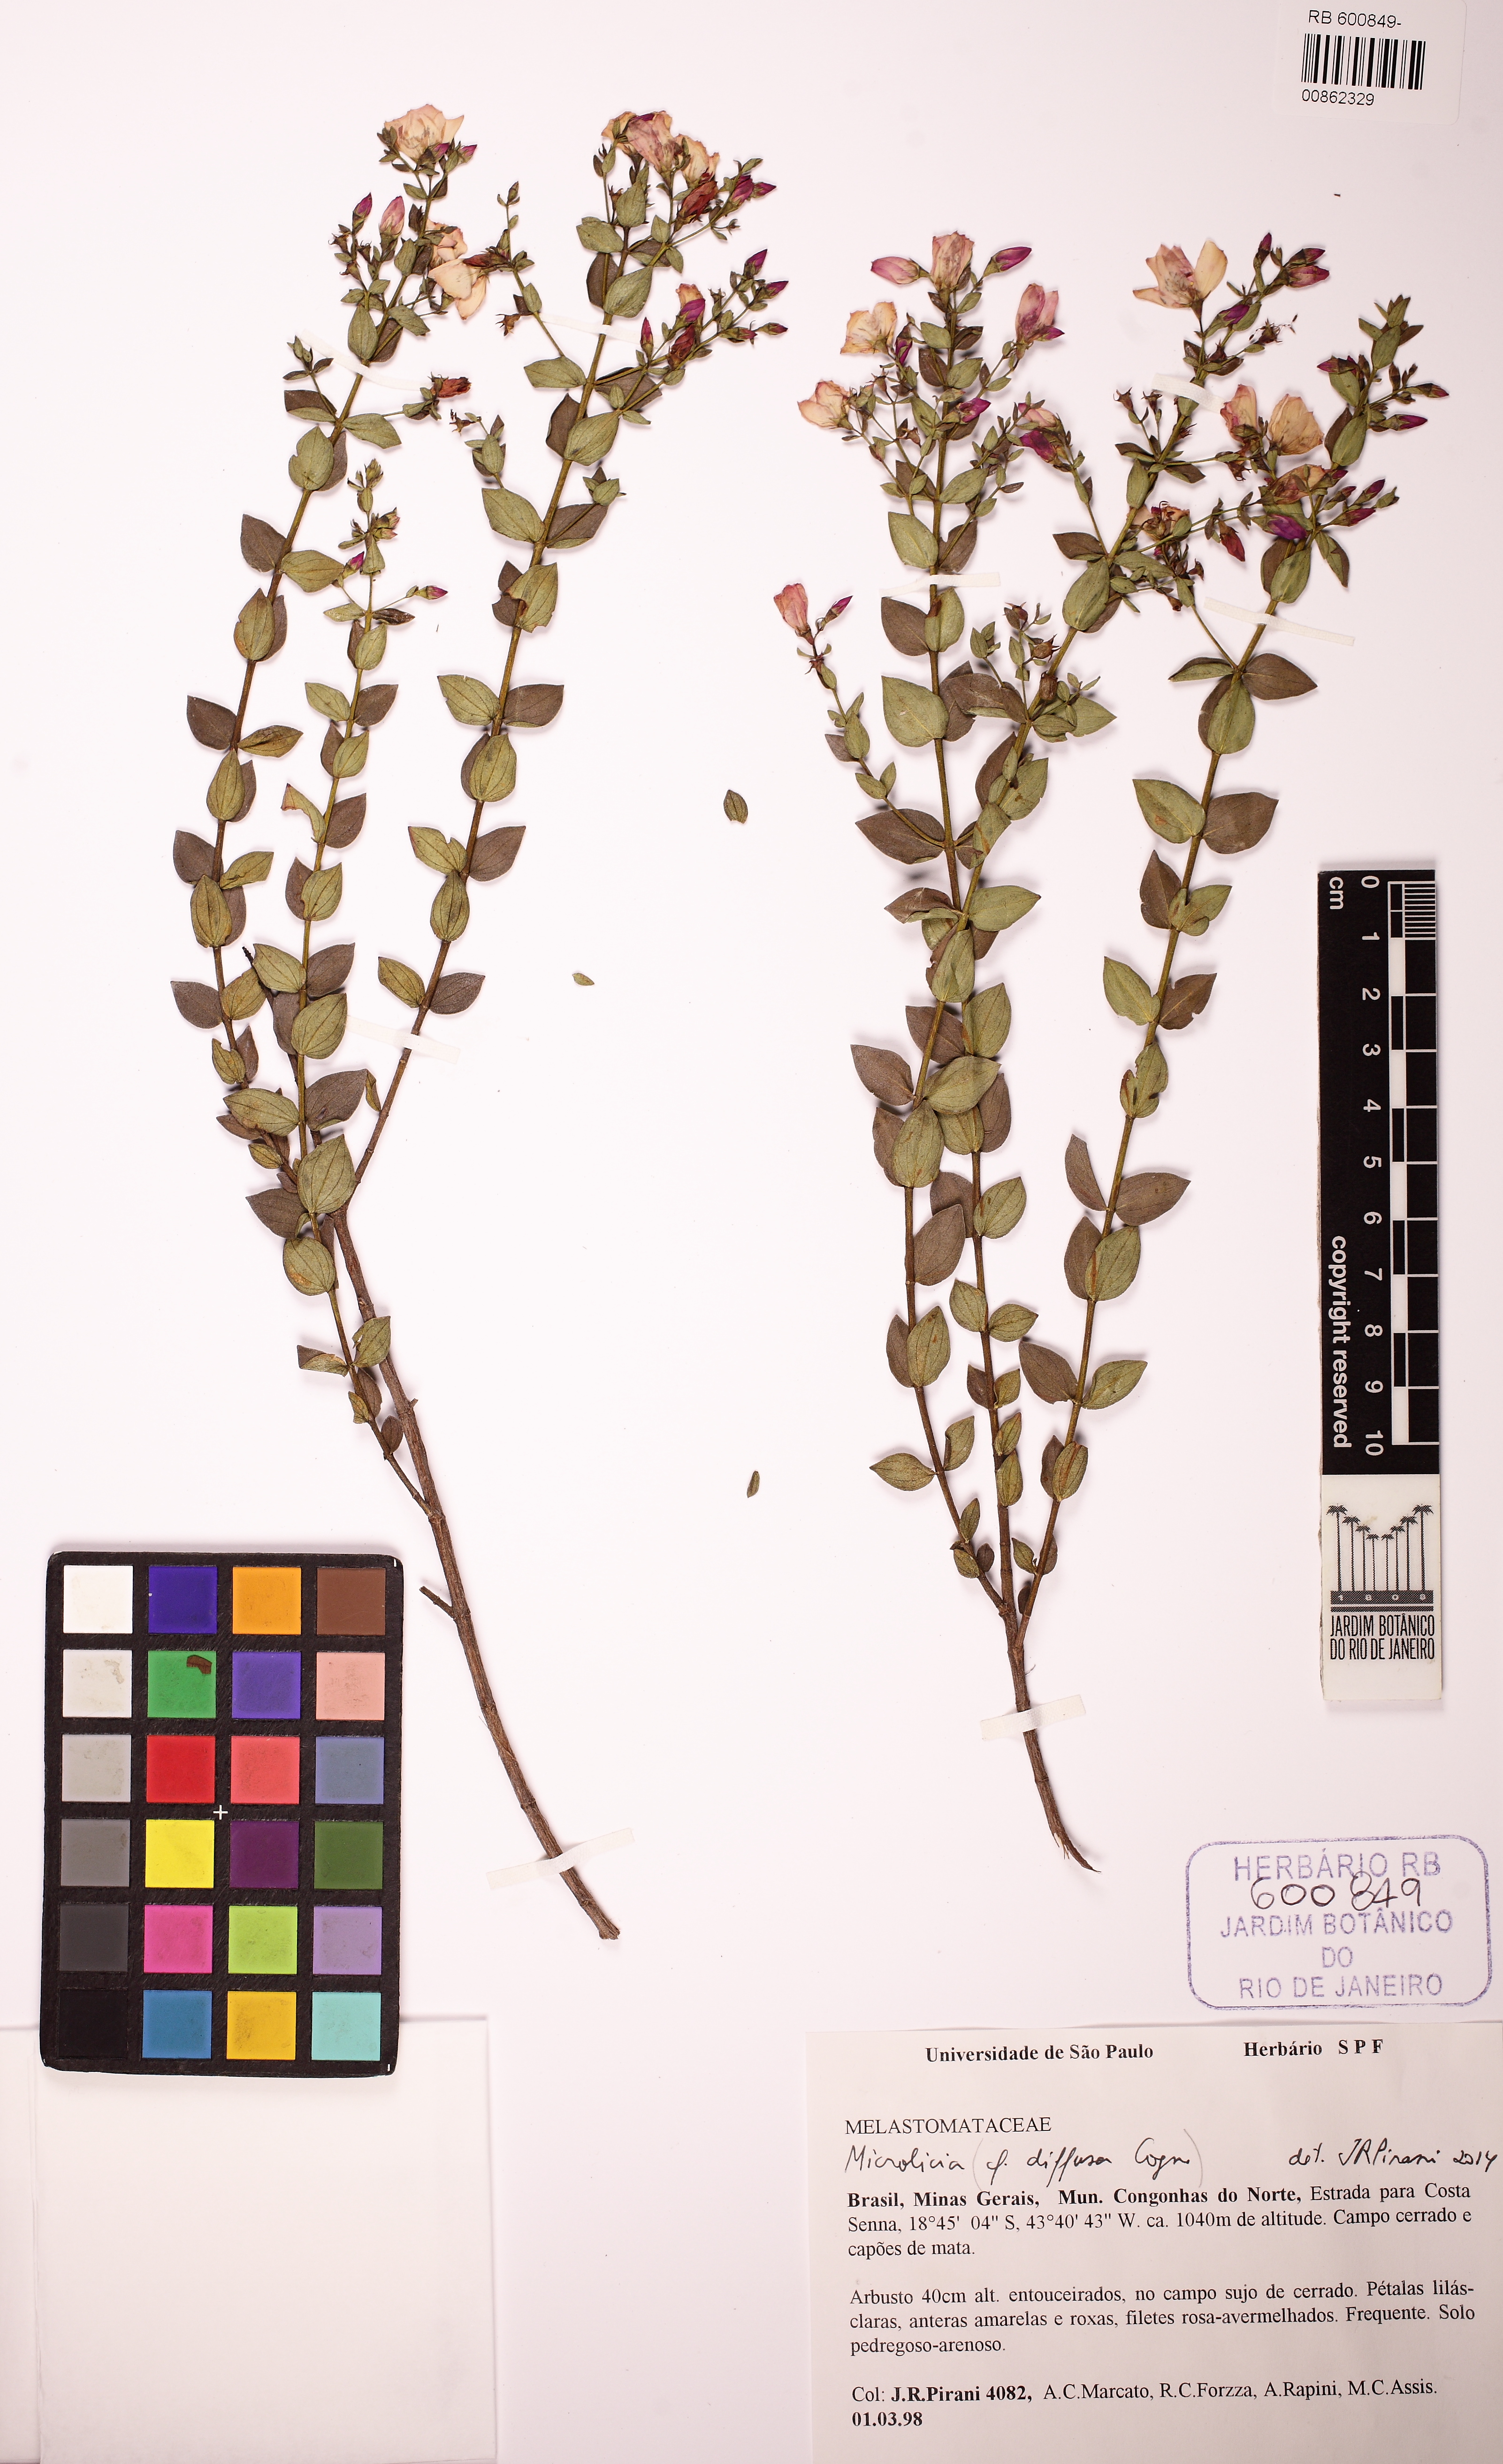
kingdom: Plantae
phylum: Tracheophyta
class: Magnoliopsida
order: Myrtales
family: Melastomataceae
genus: Microlicia
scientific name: Microlicia pabstii
